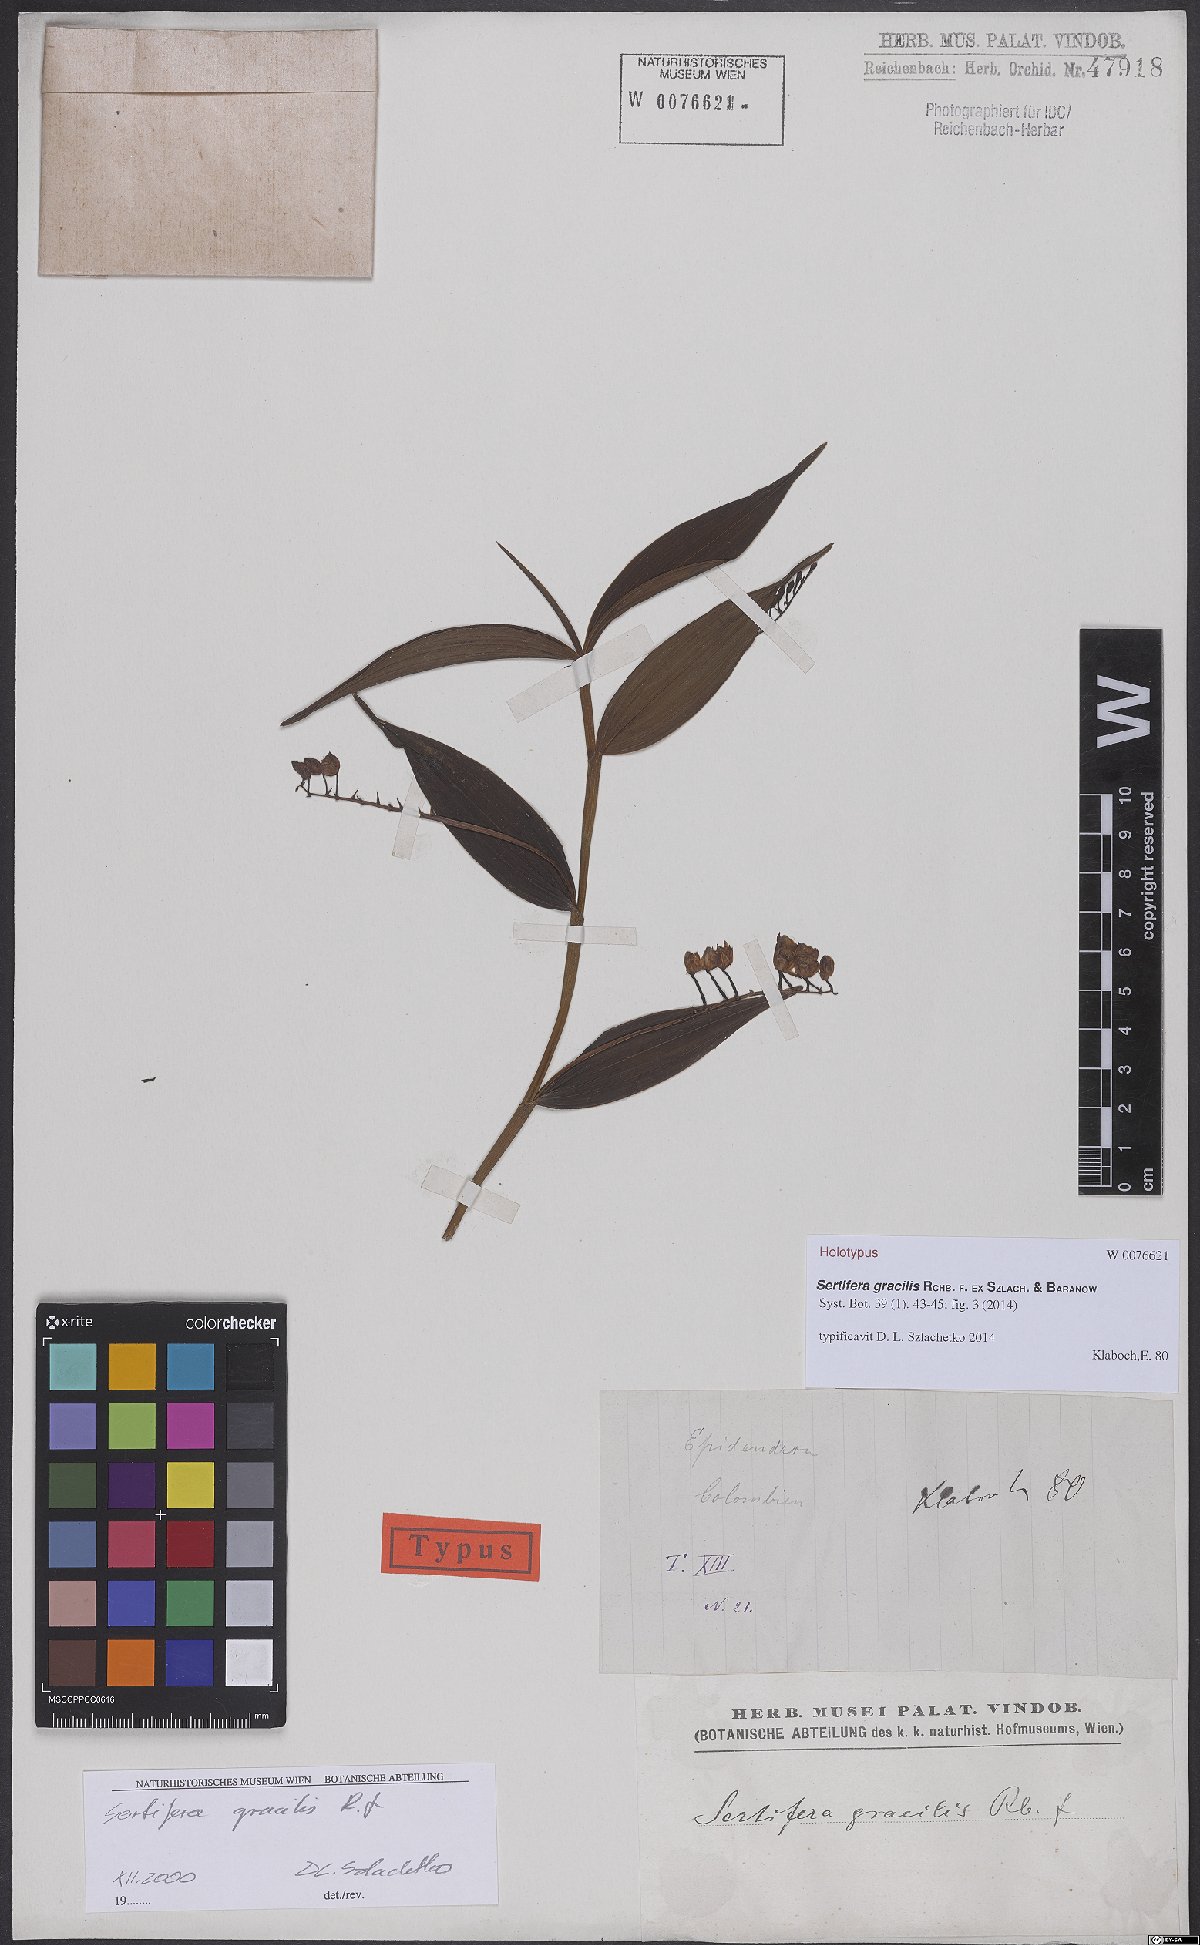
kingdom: Plantae
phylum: Tracheophyta
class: Liliopsida
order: Asparagales
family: Orchidaceae
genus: Sertifera
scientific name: Sertifera gracilis
